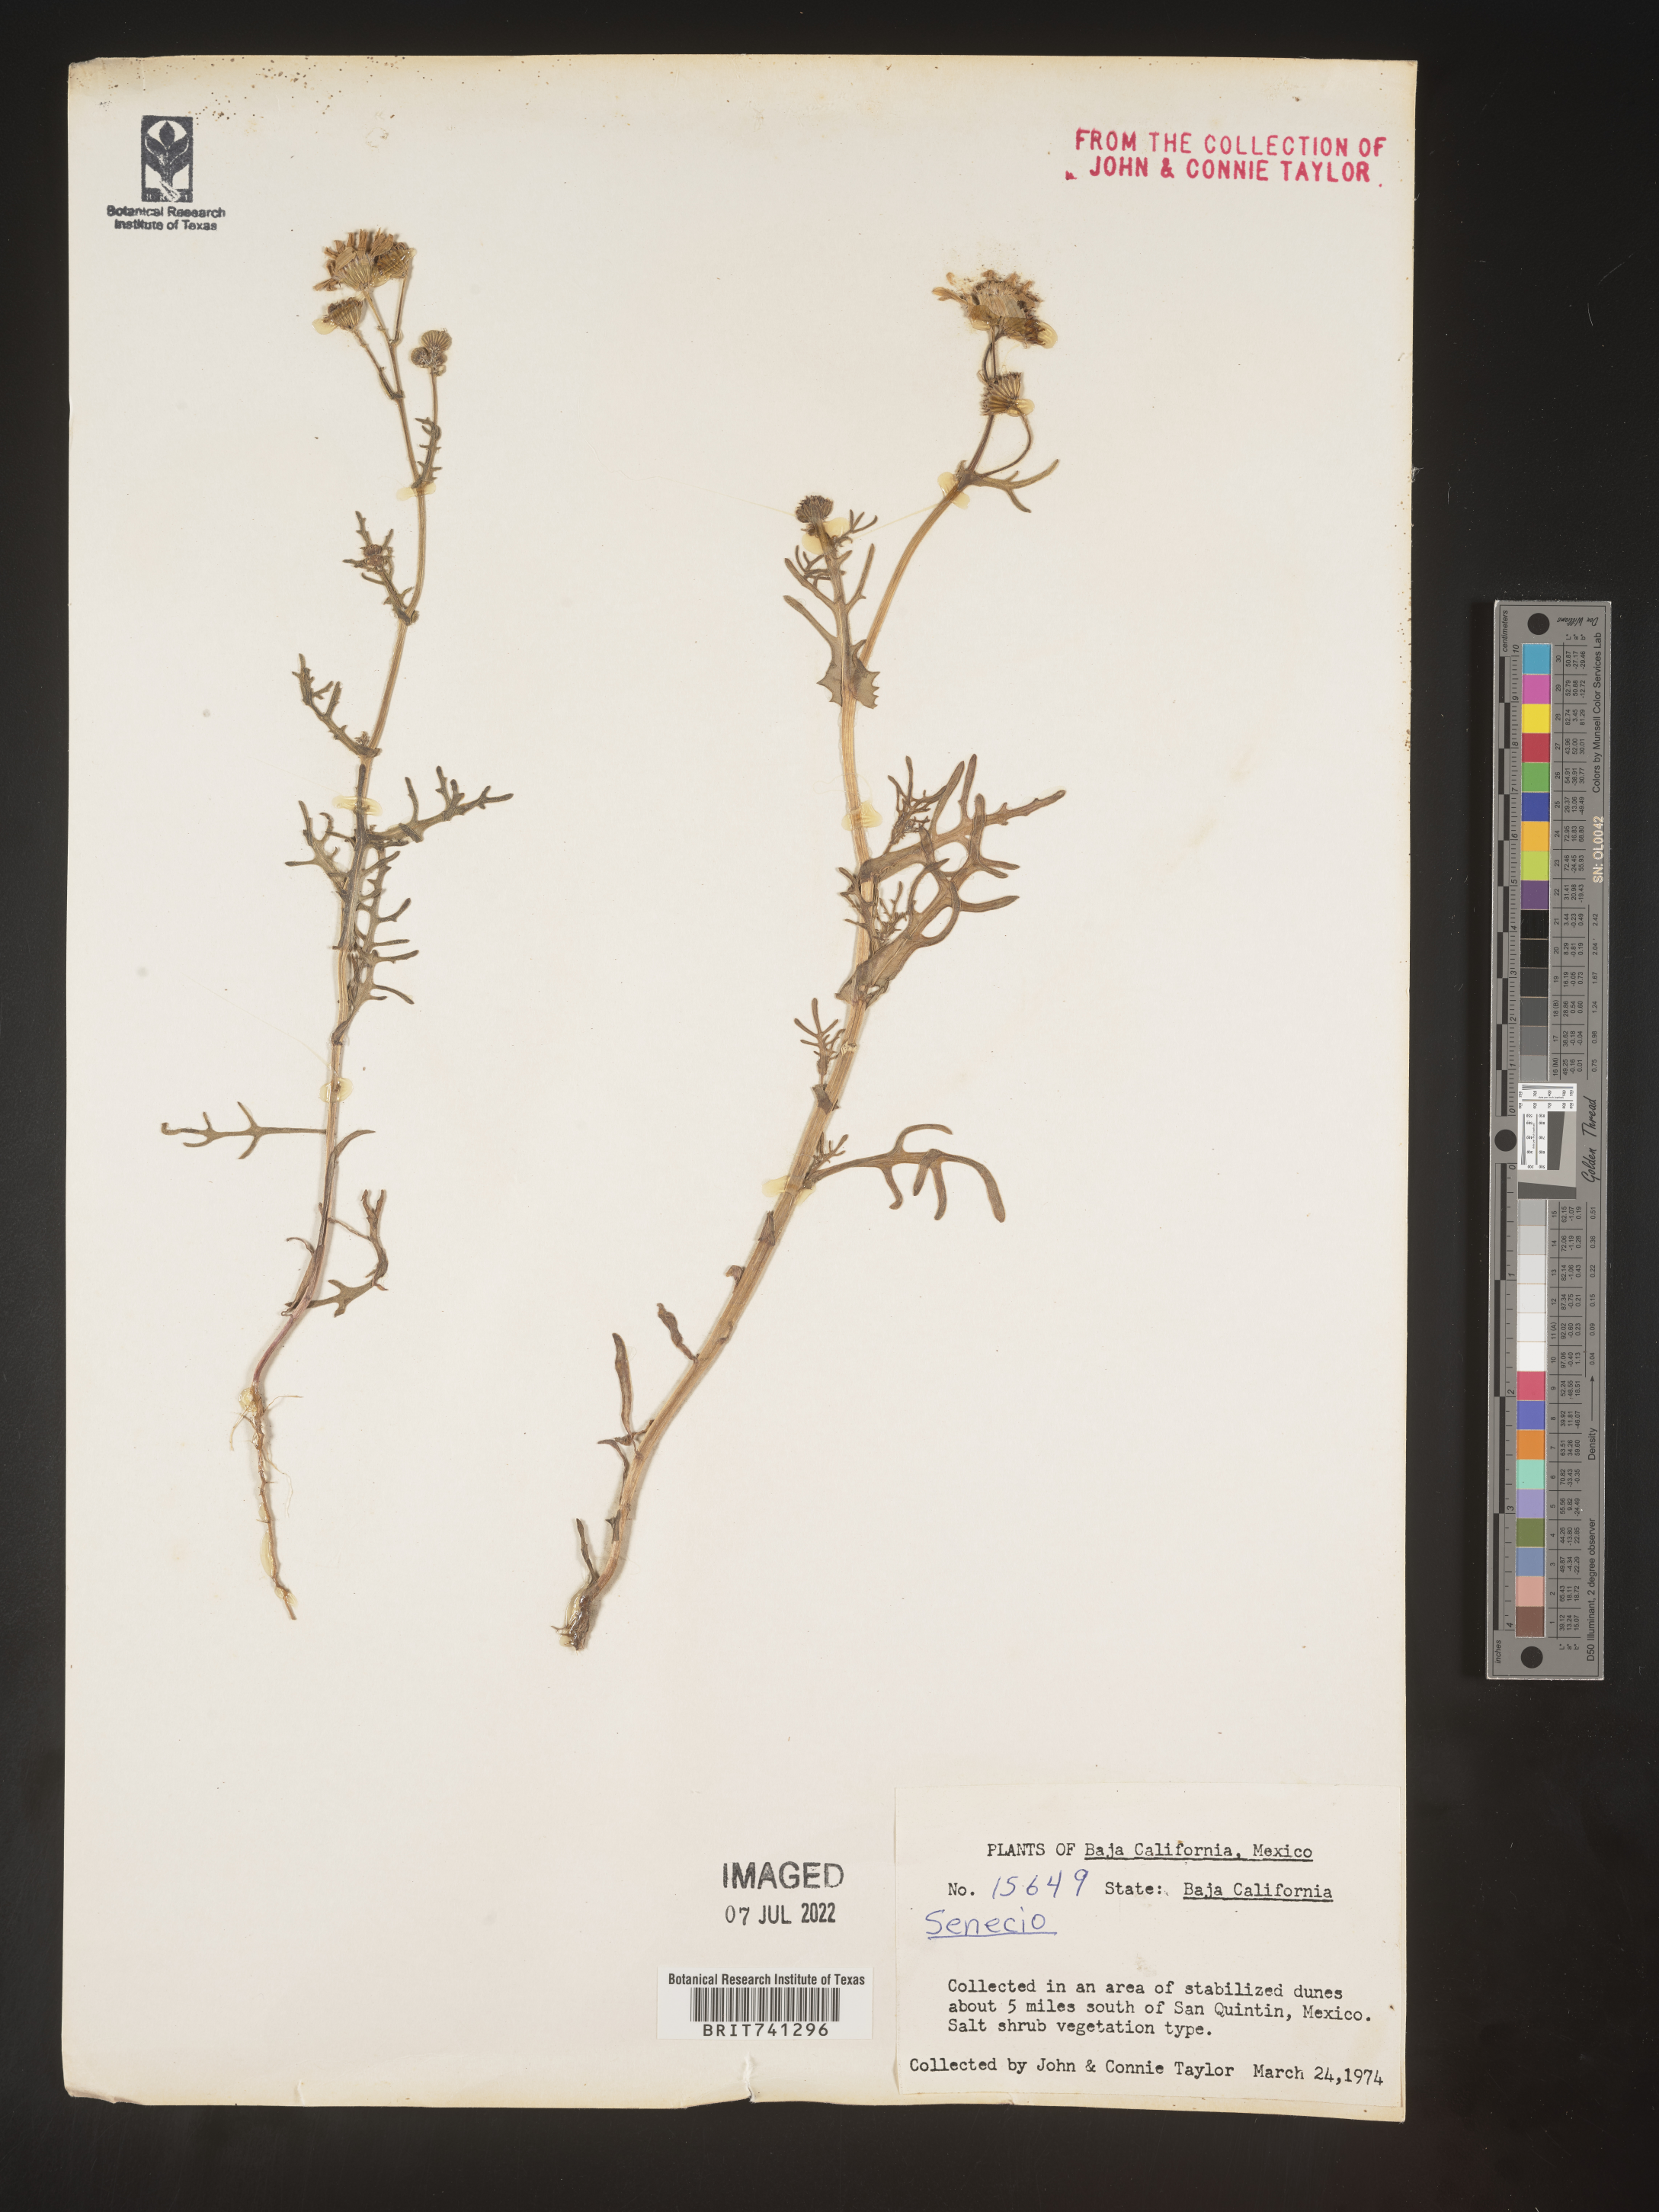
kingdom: Plantae
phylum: Tracheophyta
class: Magnoliopsida
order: Asterales
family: Asteraceae
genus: Senecio
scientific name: Senecio
